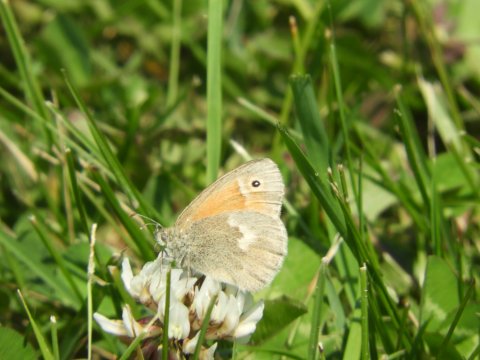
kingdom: Animalia
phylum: Arthropoda
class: Insecta
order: Lepidoptera
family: Nymphalidae
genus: Coenonympha
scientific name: Coenonympha tullia
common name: Large Heath
